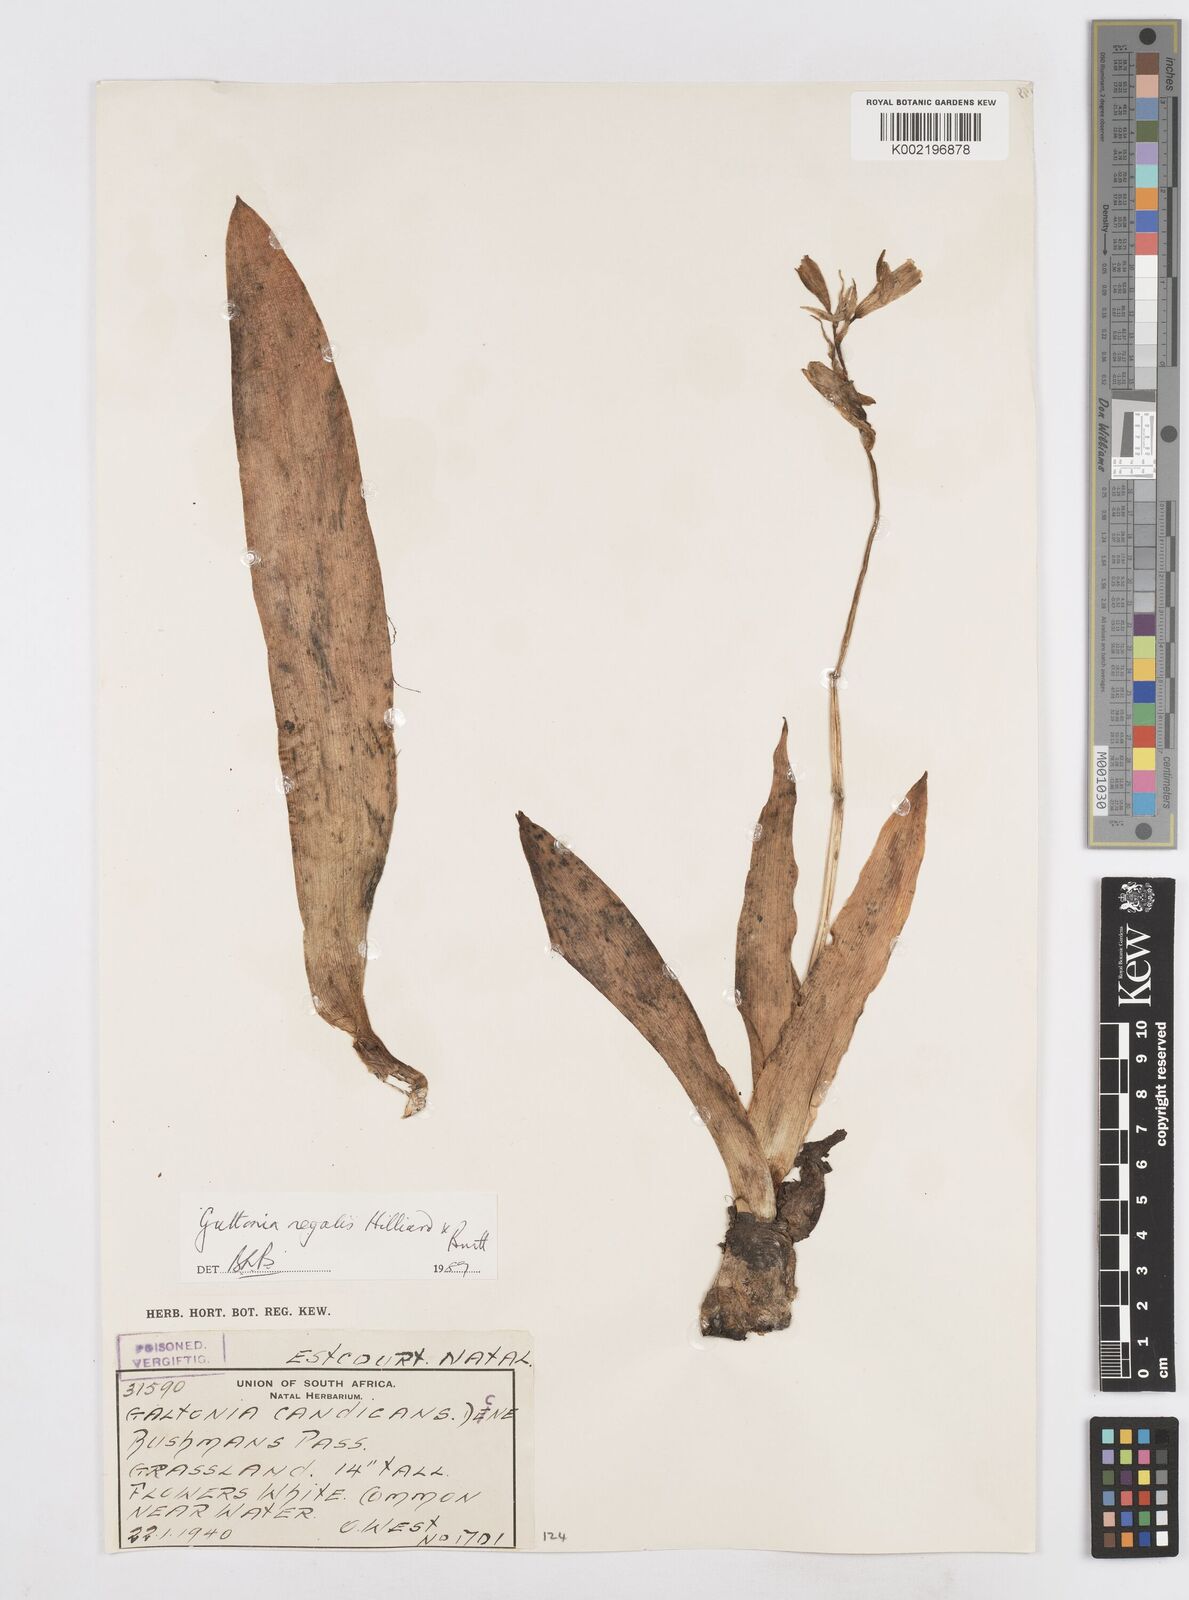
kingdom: Plantae
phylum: Tracheophyta
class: Liliopsida
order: Asparagales
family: Asparagaceae
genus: Ornithogalum
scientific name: Ornithogalum regale
